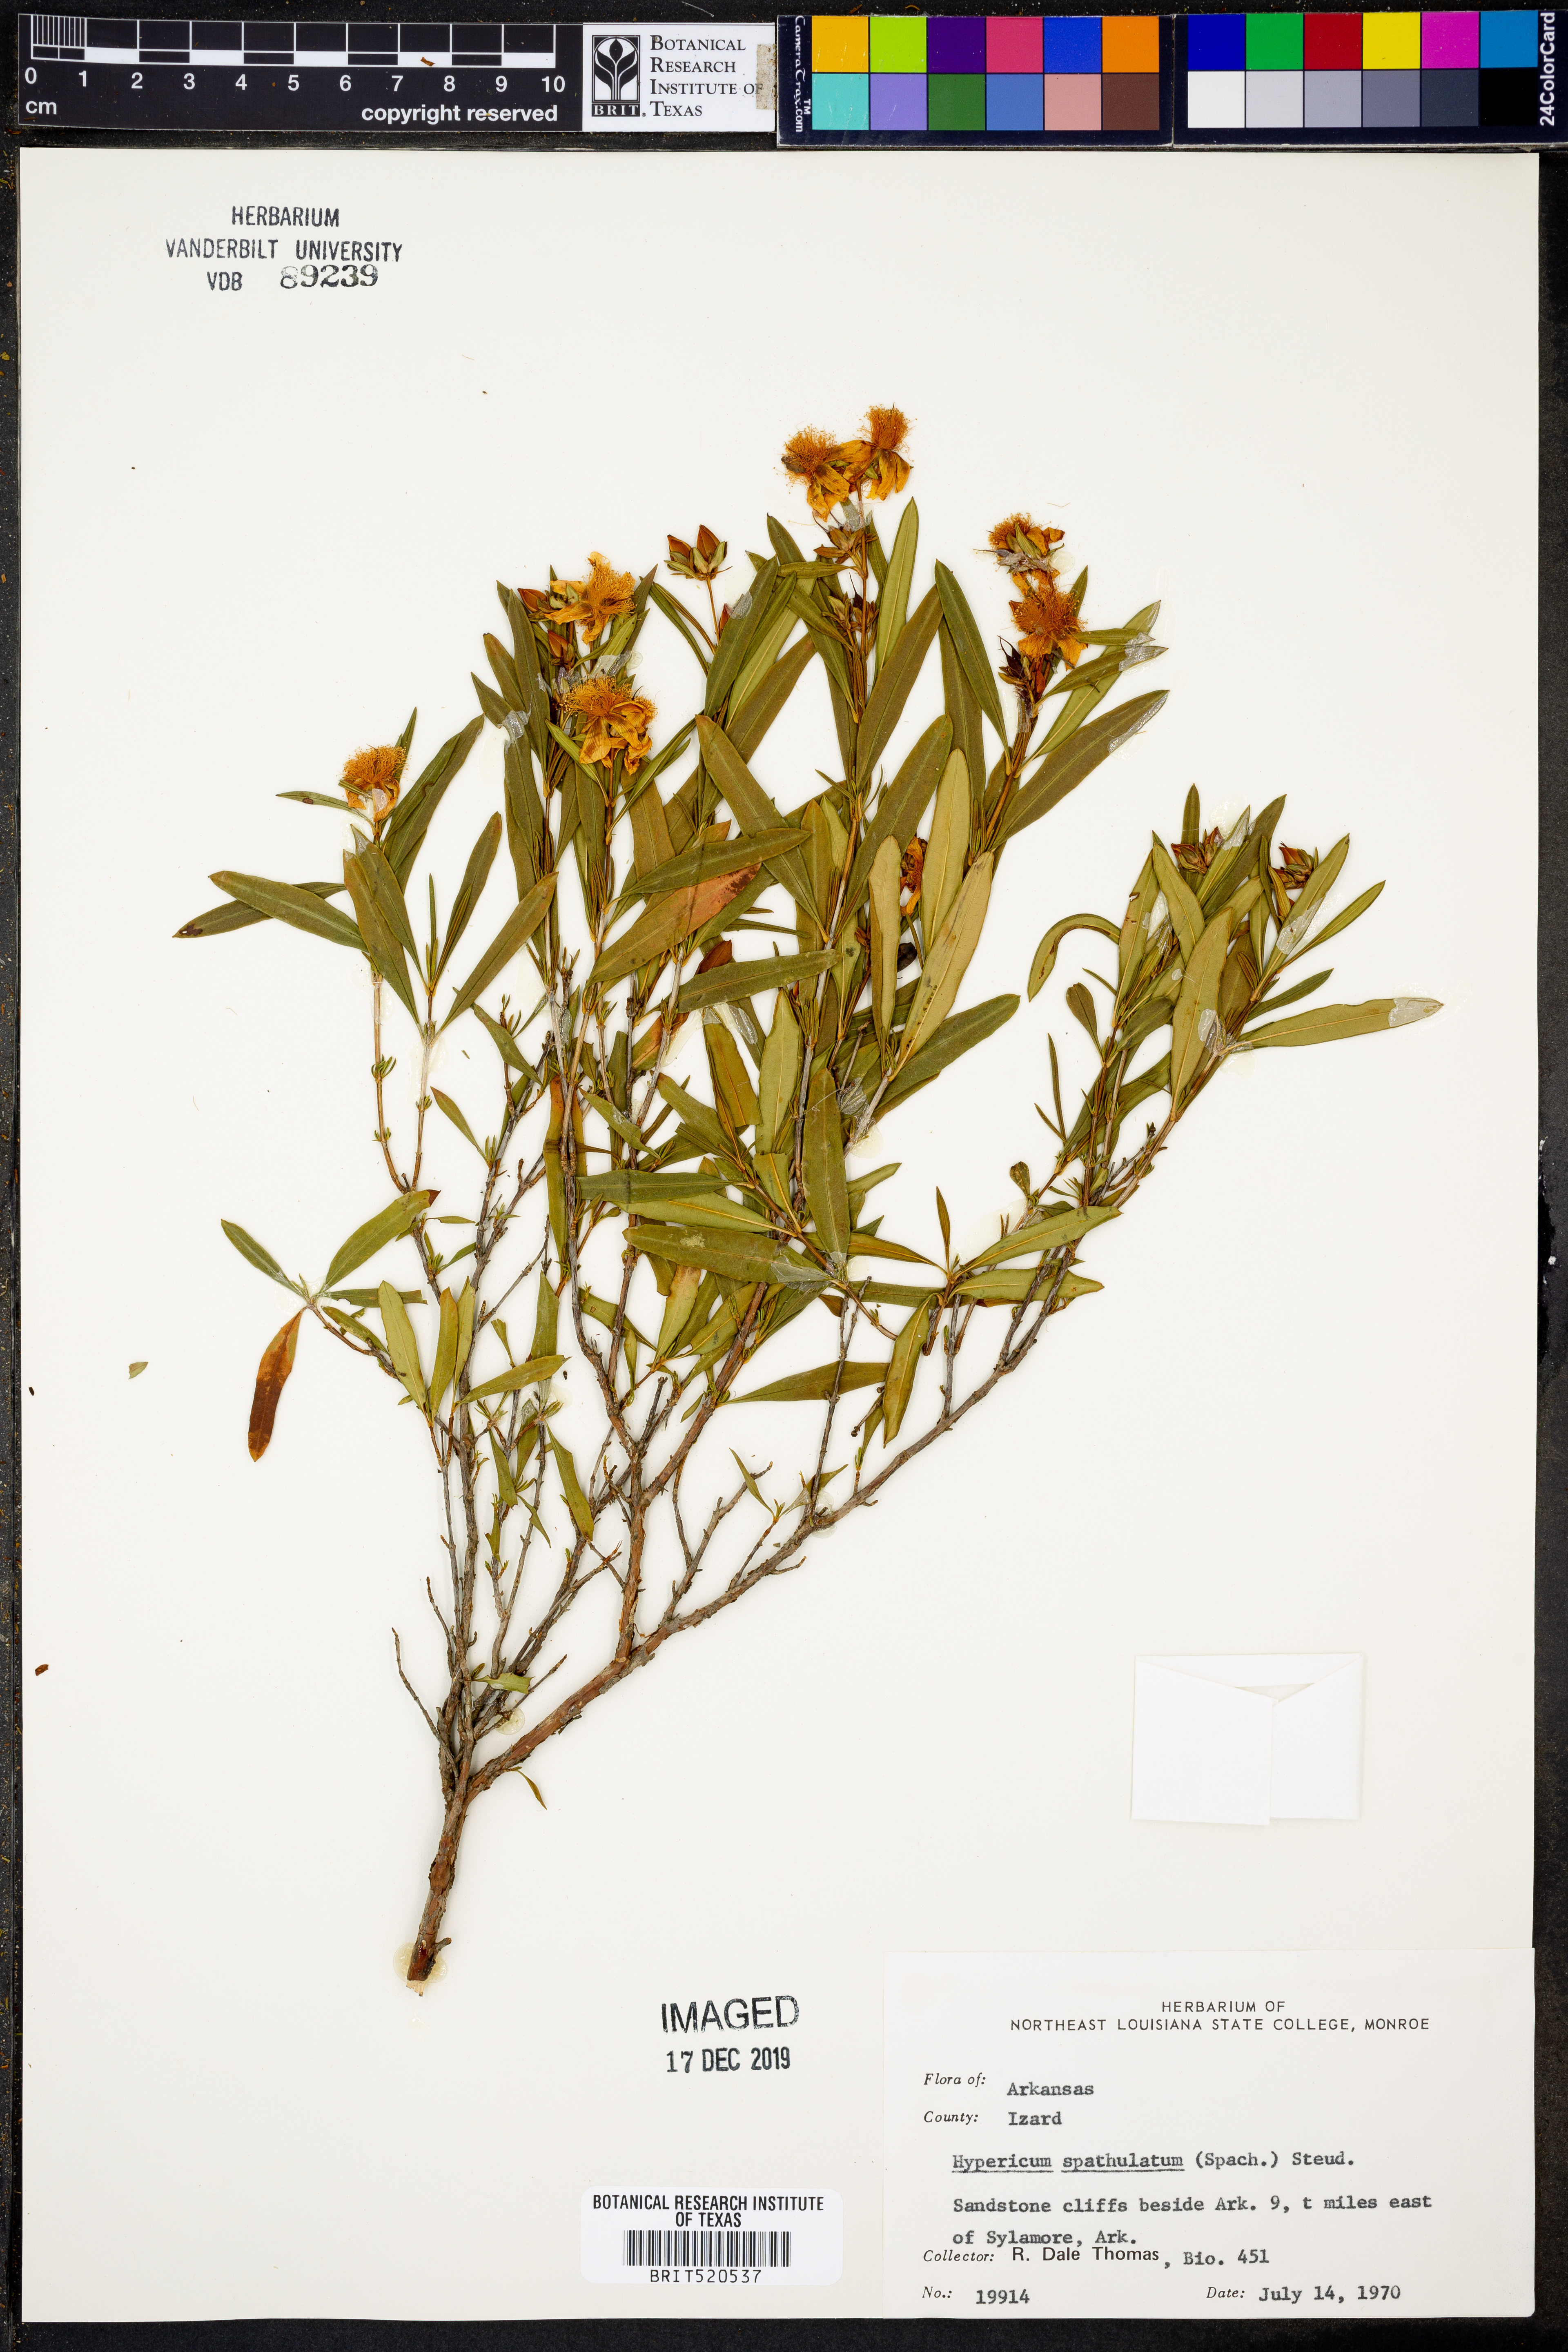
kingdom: Plantae
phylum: Tracheophyta
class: Magnoliopsida
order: Malpighiales
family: Hypericaceae
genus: Hypericum
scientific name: Hypericum
